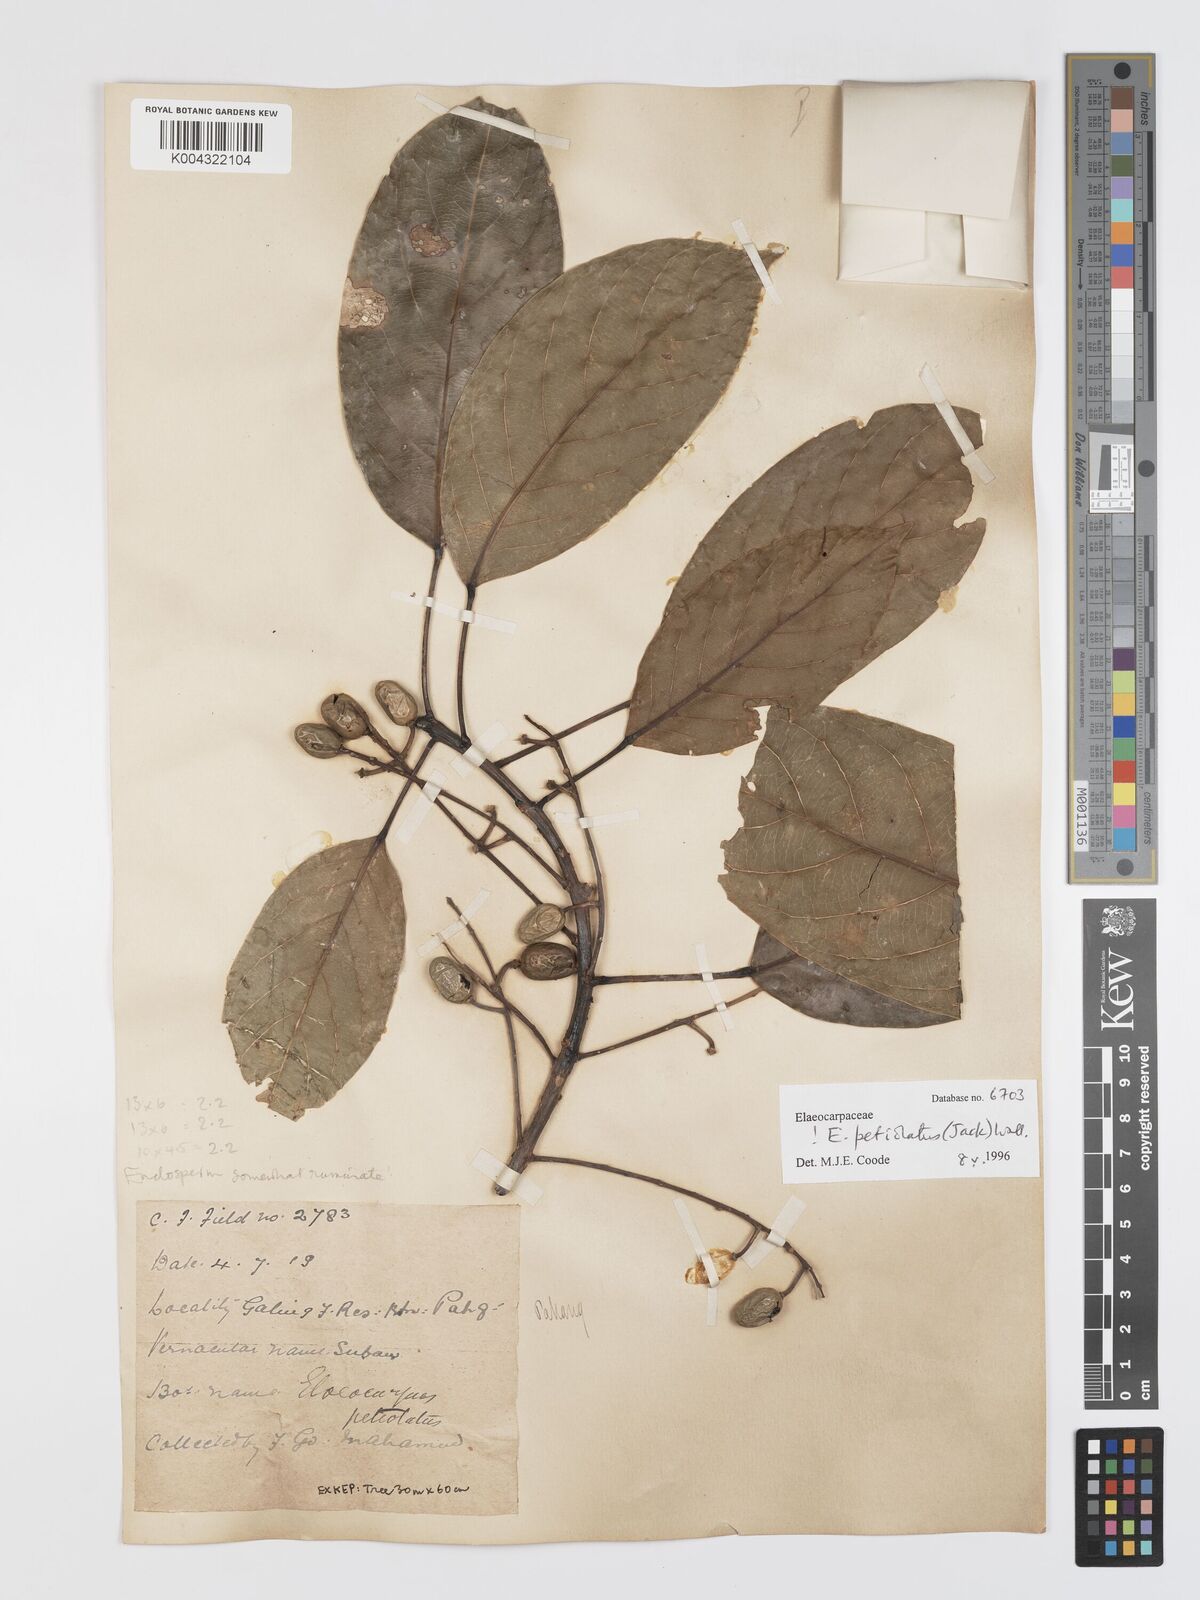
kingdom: Plantae
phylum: Tracheophyta
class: Magnoliopsida
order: Oxalidales
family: Elaeocarpaceae
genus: Elaeocarpus
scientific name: Elaeocarpus petiolatus
